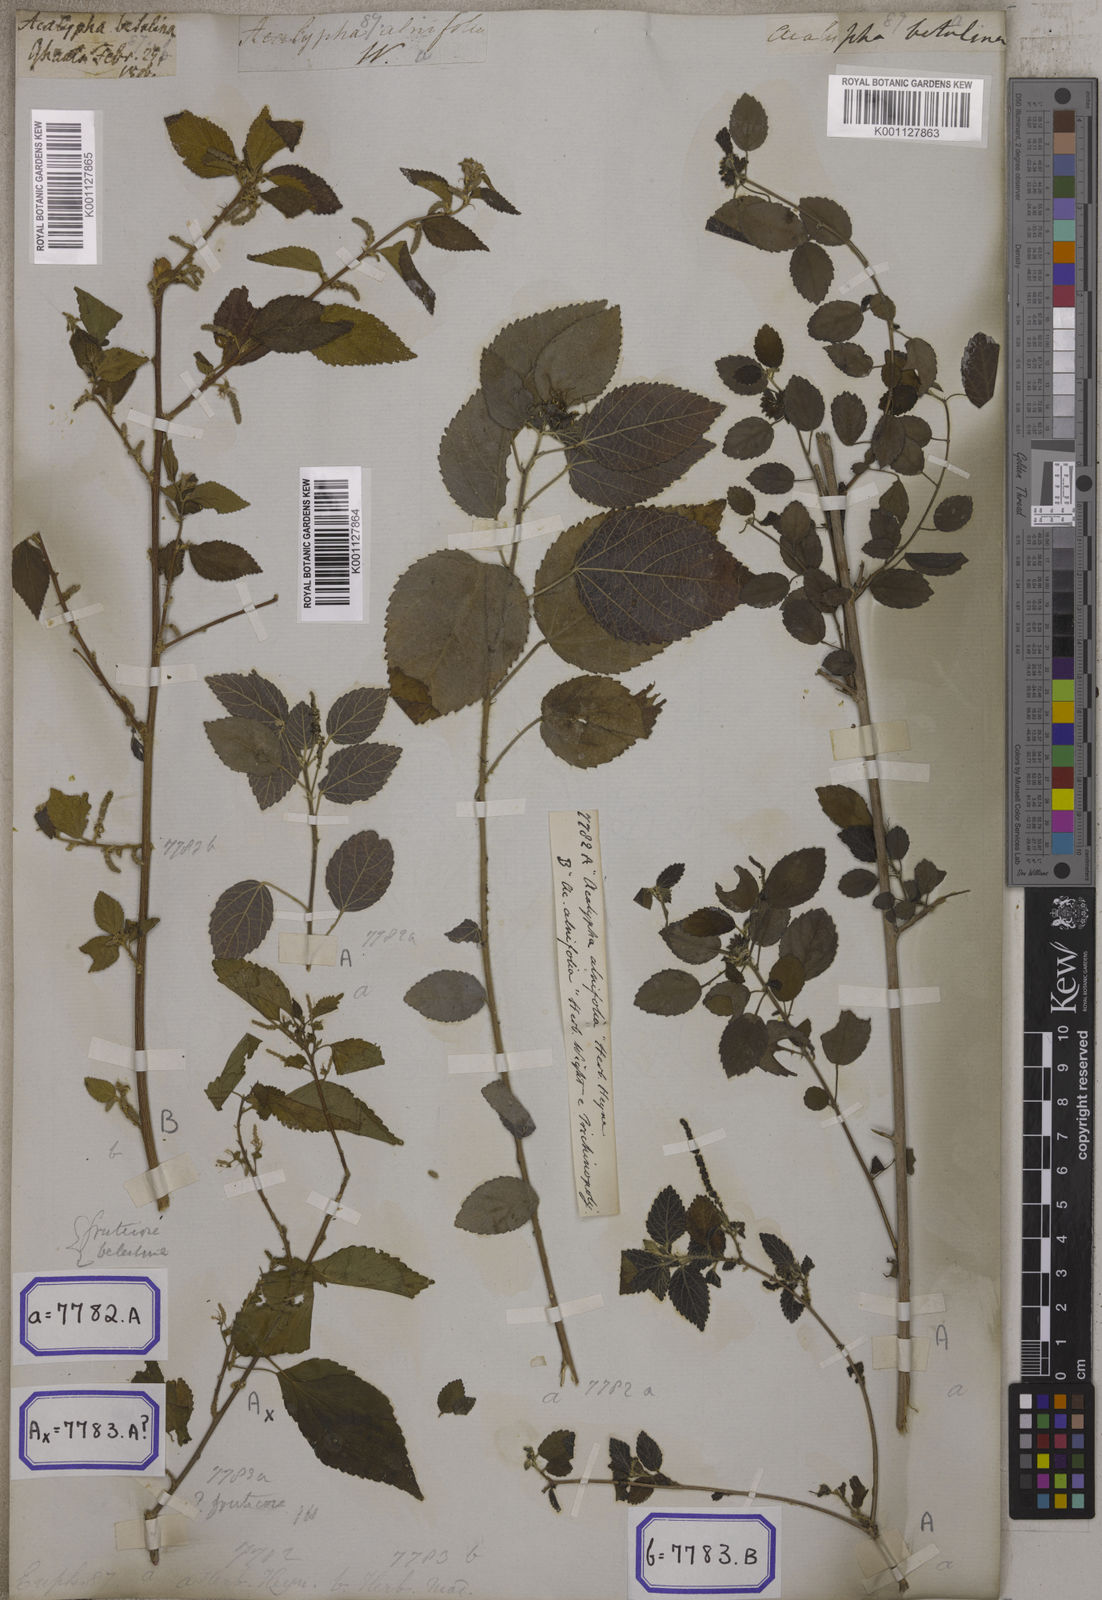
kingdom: Plantae
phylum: Tracheophyta
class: Magnoliopsida
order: Malpighiales
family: Euphorbiaceae
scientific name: Euphorbiaceae
